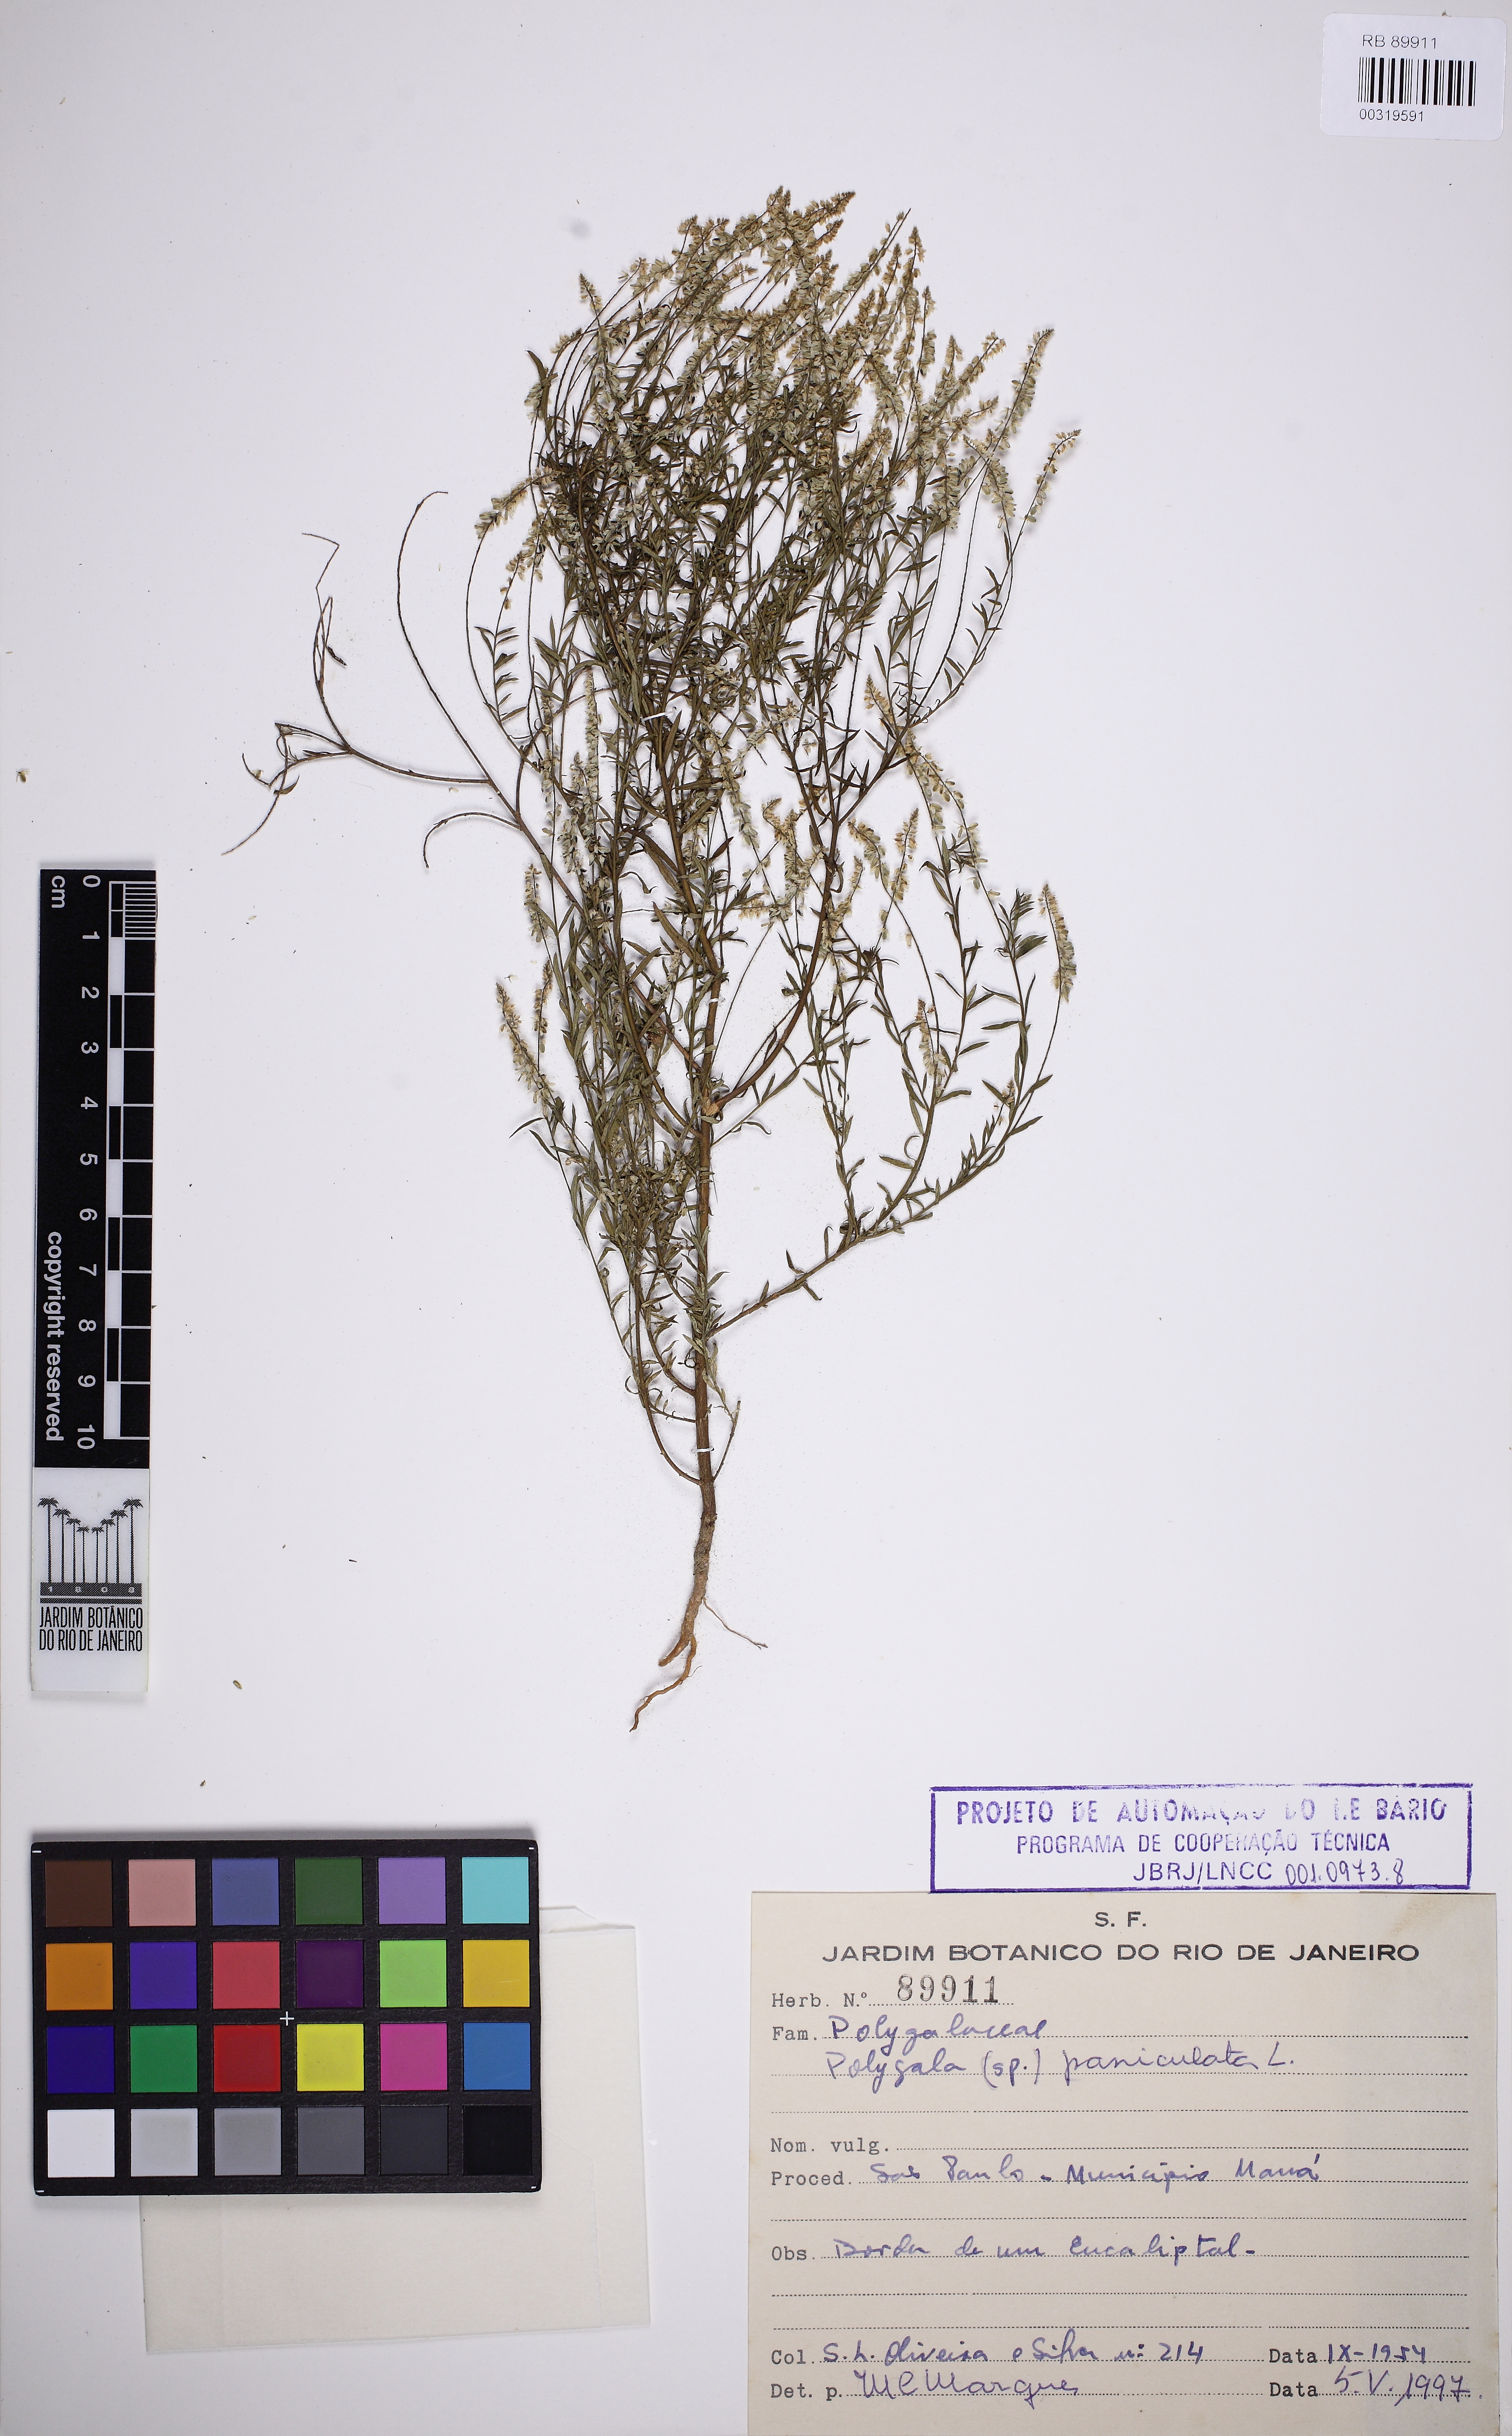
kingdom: Plantae
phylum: Tracheophyta
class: Magnoliopsida
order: Fabales
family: Polygalaceae
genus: Polygala
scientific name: Polygala paniculata
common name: Orosne
